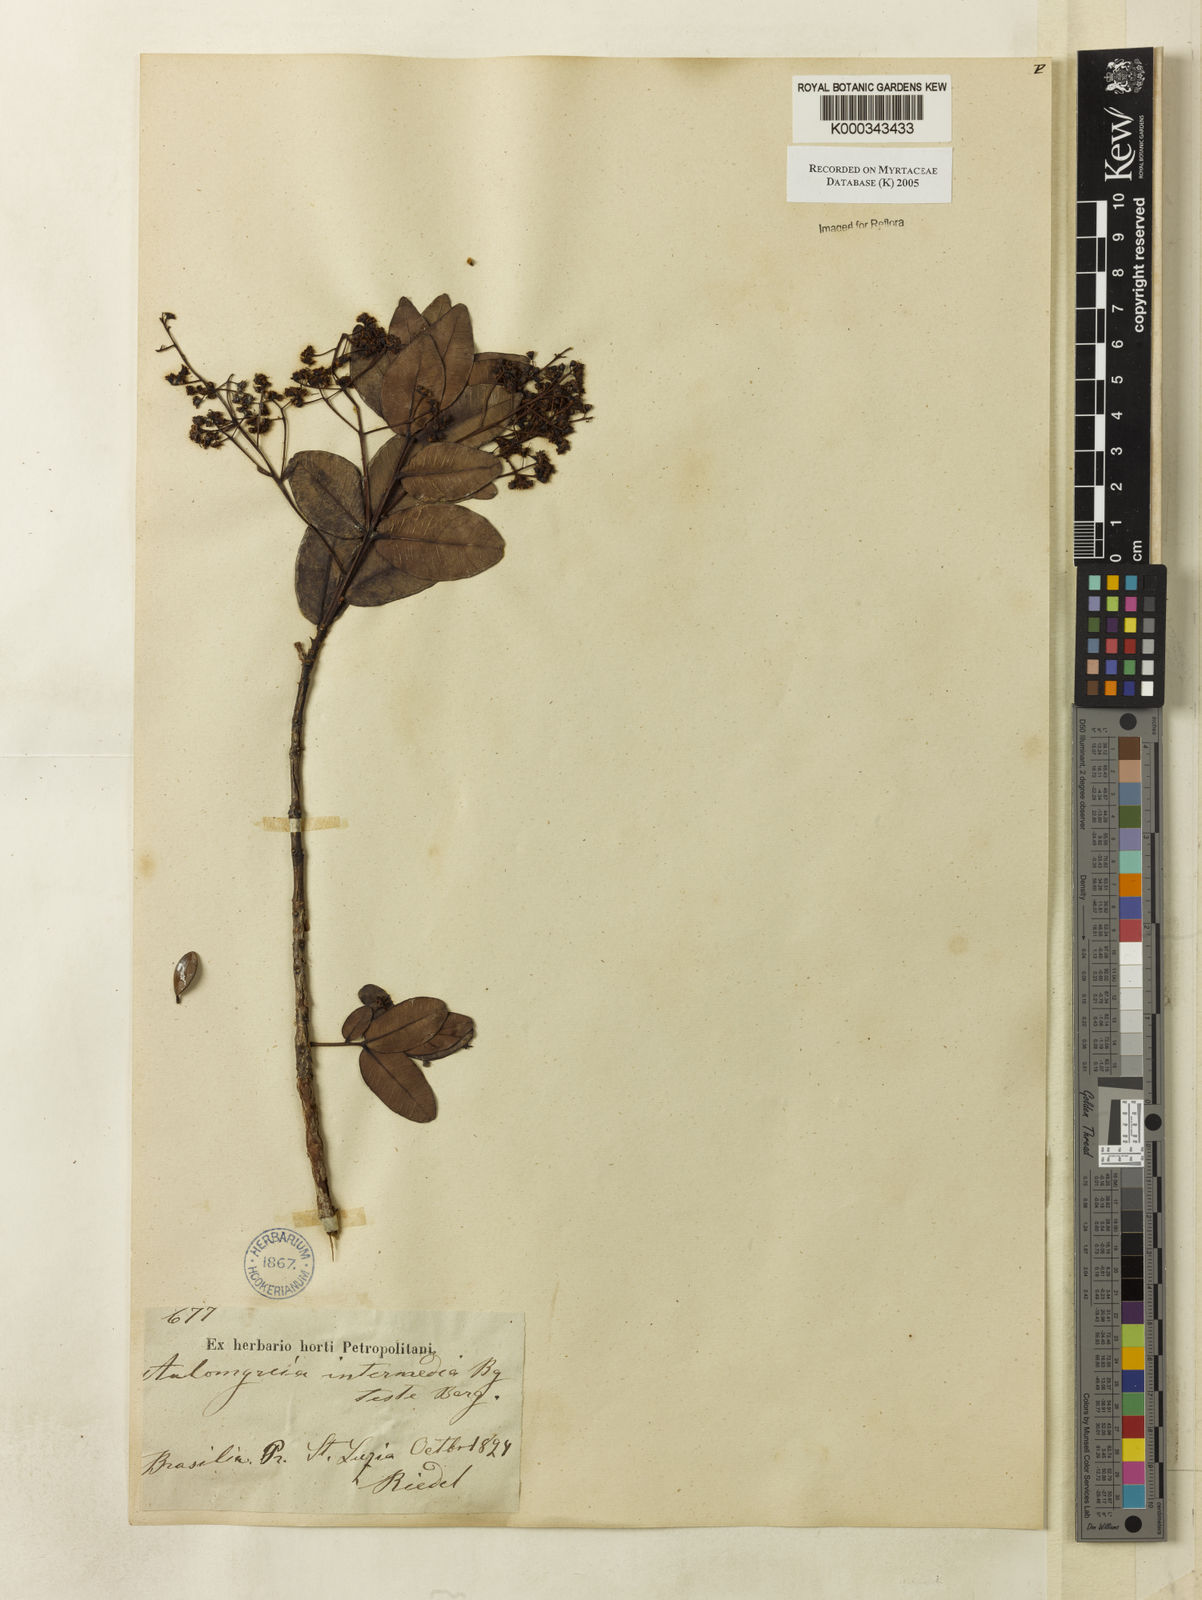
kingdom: Plantae
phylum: Tracheophyta
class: Magnoliopsida
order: Myrtales
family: Myrtaceae
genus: Myrcia
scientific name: Myrcia guianensis
